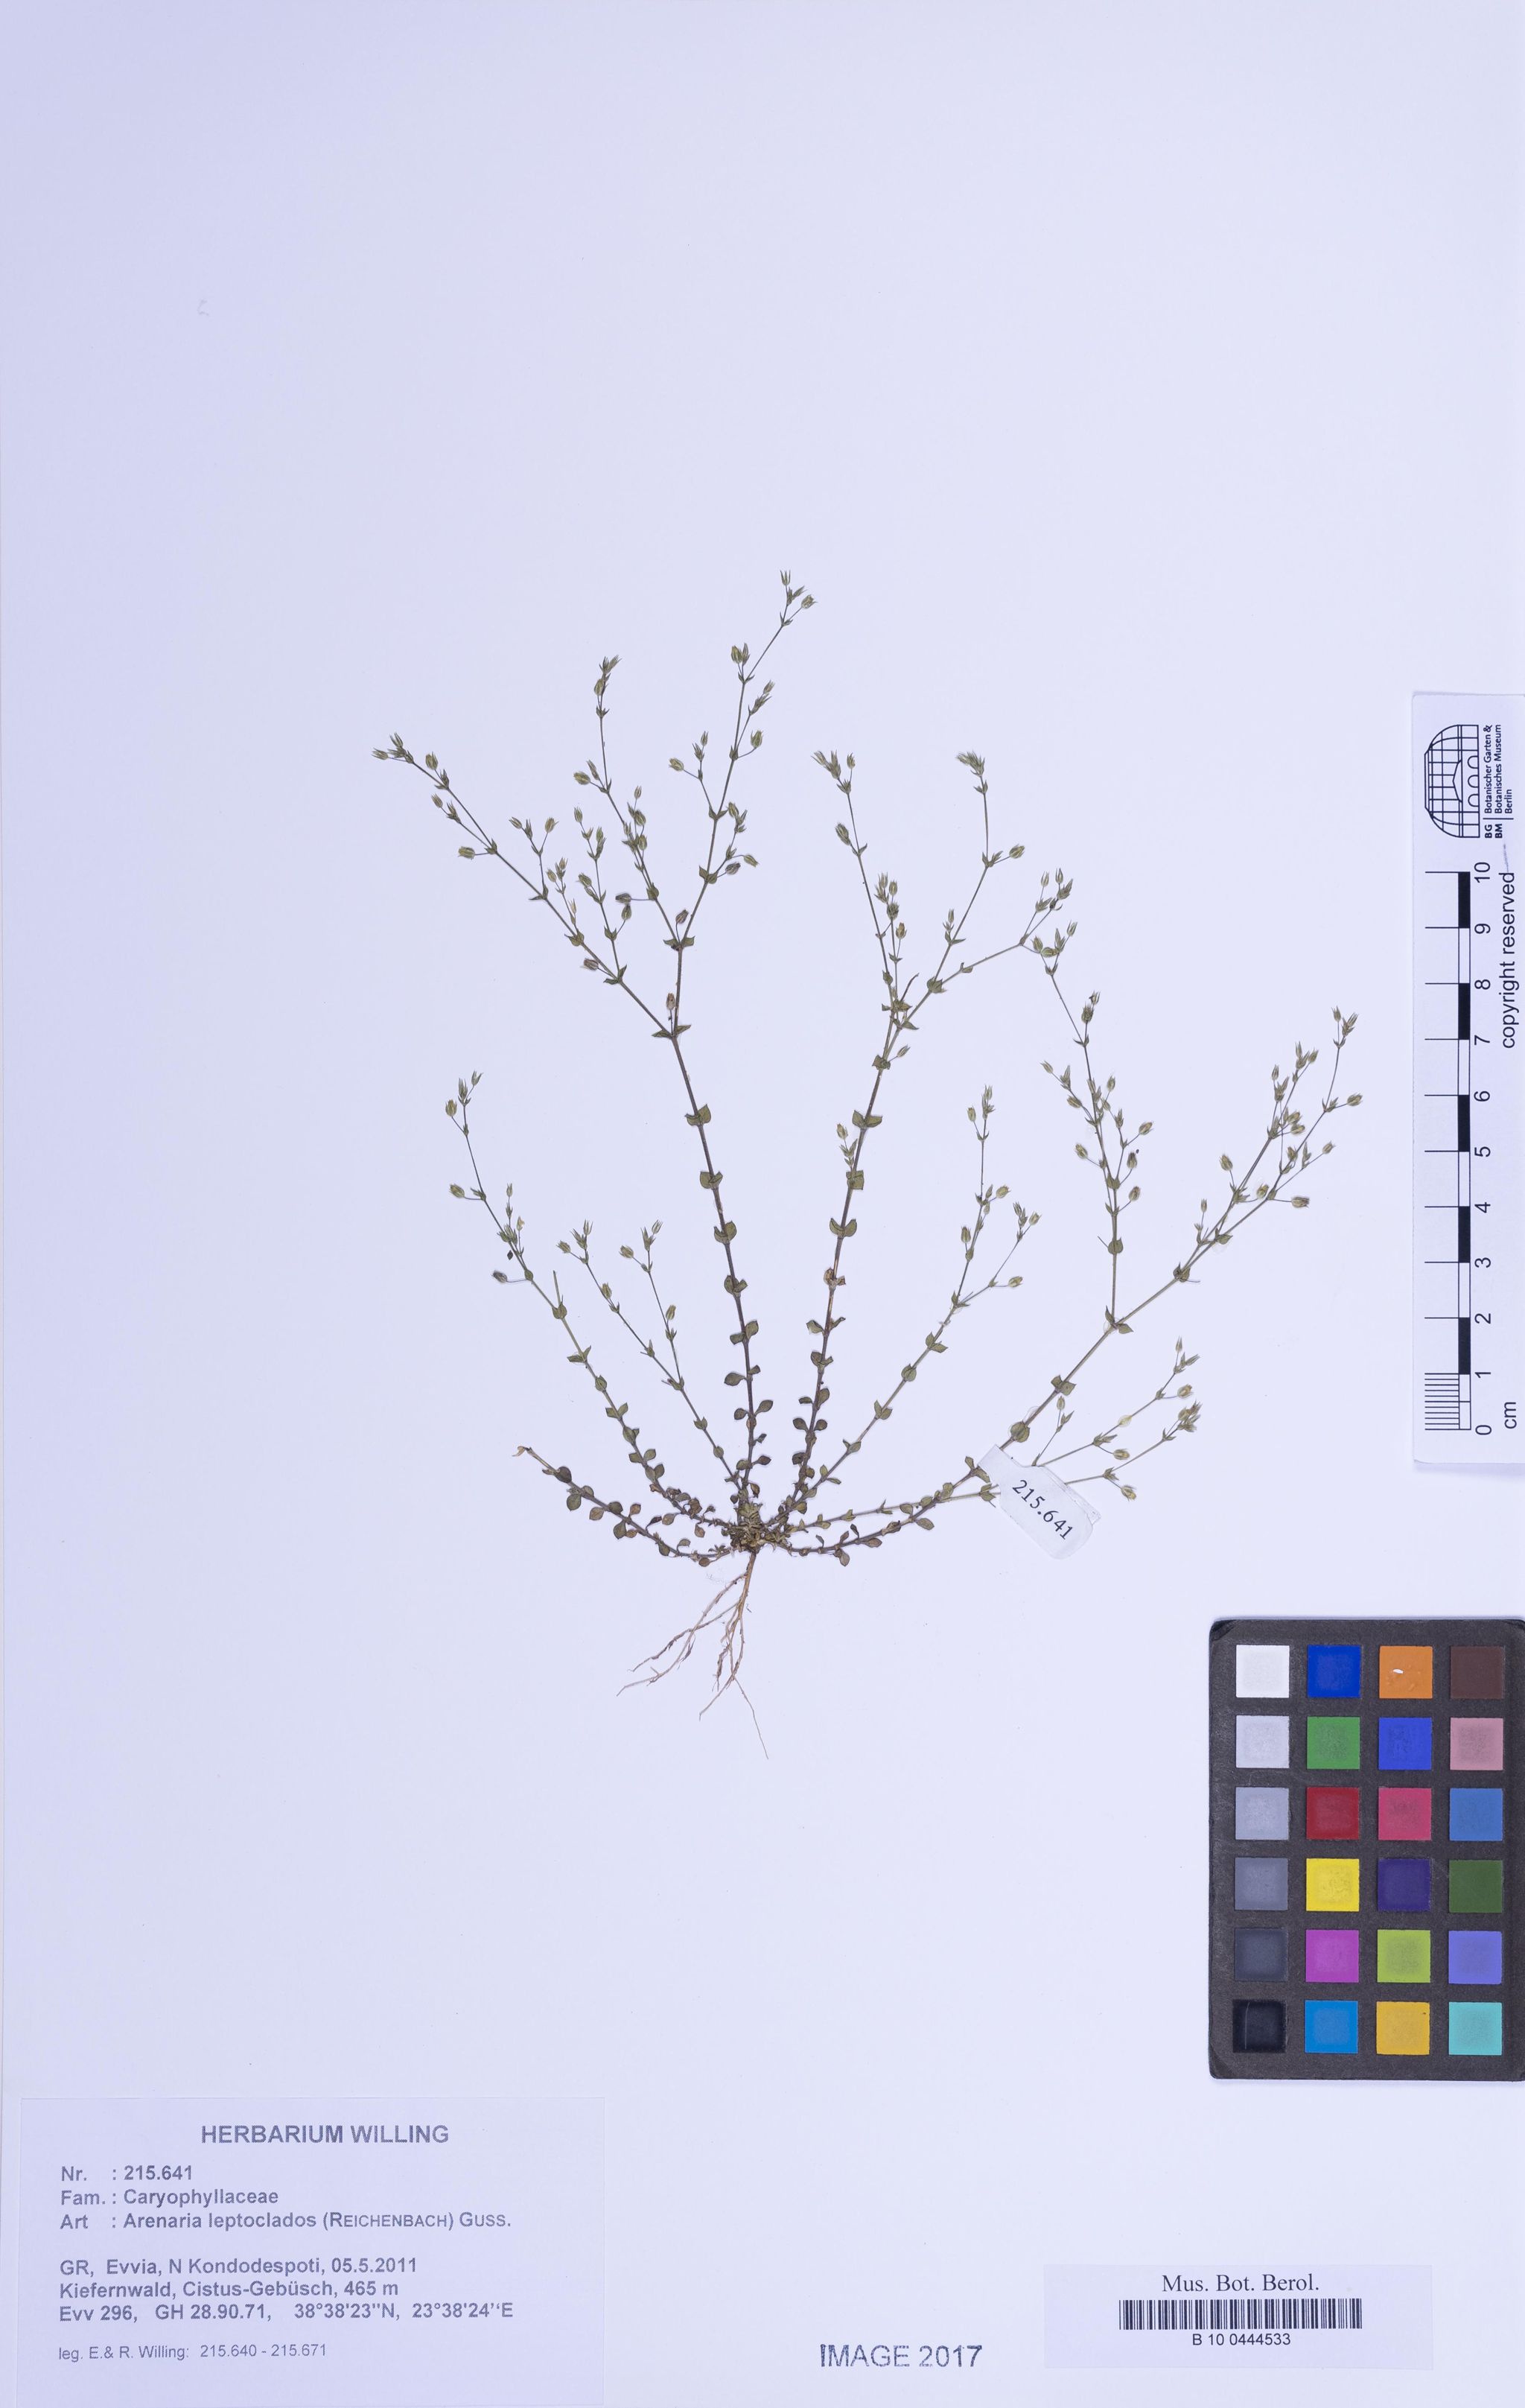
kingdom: Plantae
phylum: Tracheophyta
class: Magnoliopsida
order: Caryophyllales
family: Caryophyllaceae
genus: Arenaria
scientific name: Arenaria leptoclados
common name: Thyme-leaved sandwort
